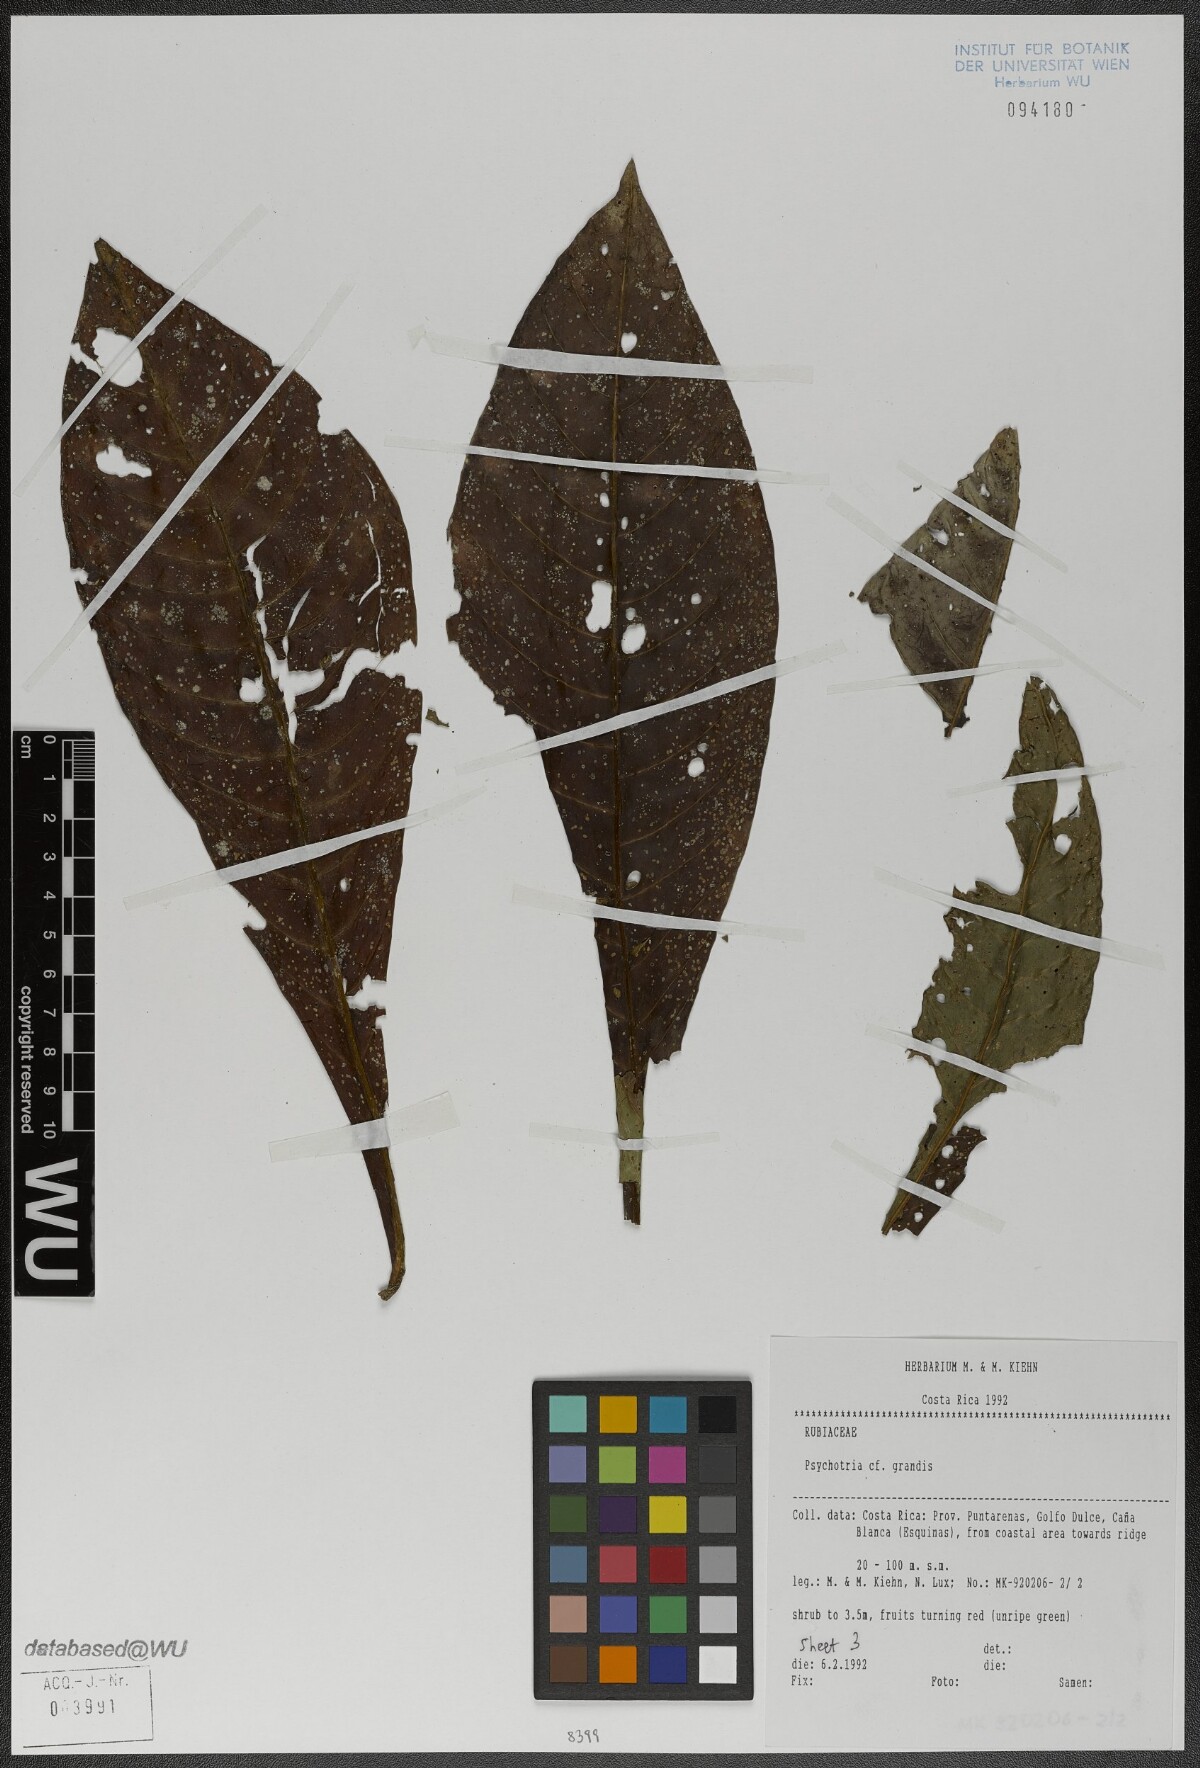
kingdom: Plantae
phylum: Tracheophyta
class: Magnoliopsida
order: Gentianales
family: Rubiaceae
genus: Psychotria
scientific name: Psychotria grandis
